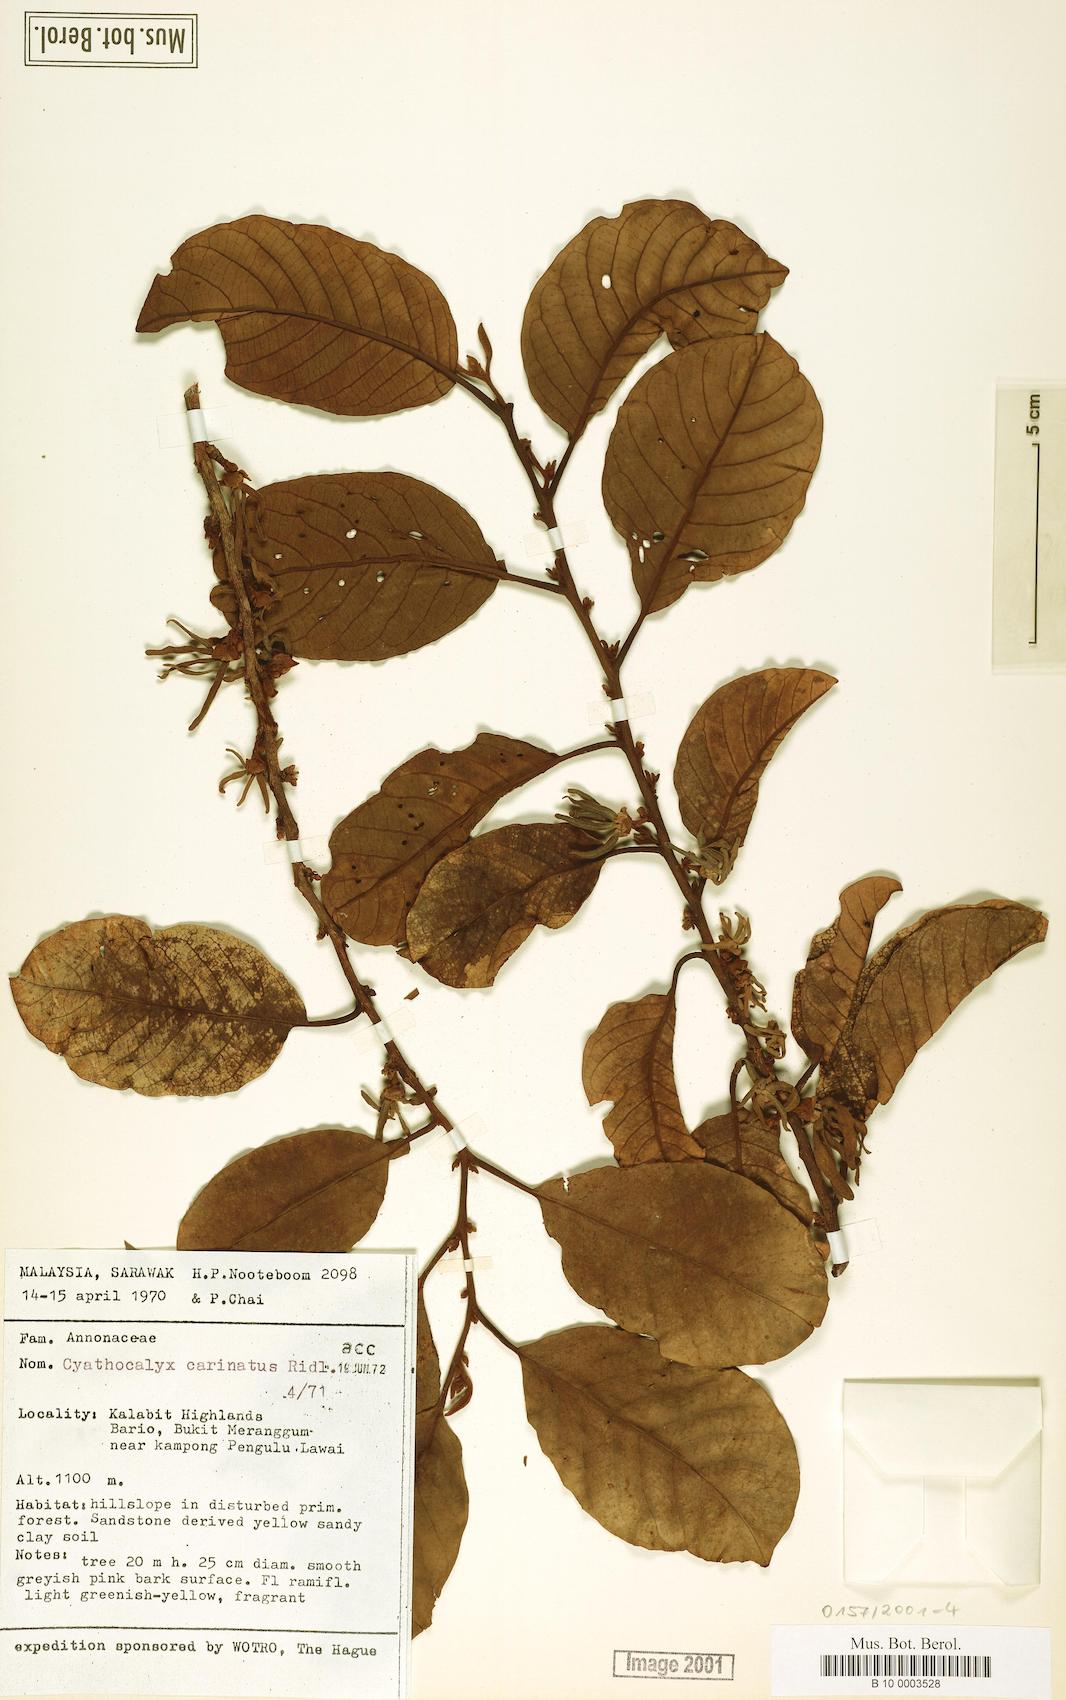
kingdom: Plantae
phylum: Tracheophyta
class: Magnoliopsida
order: Magnoliales
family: Annonaceae
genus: Drepananthus
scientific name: Drepananthus carinatus
